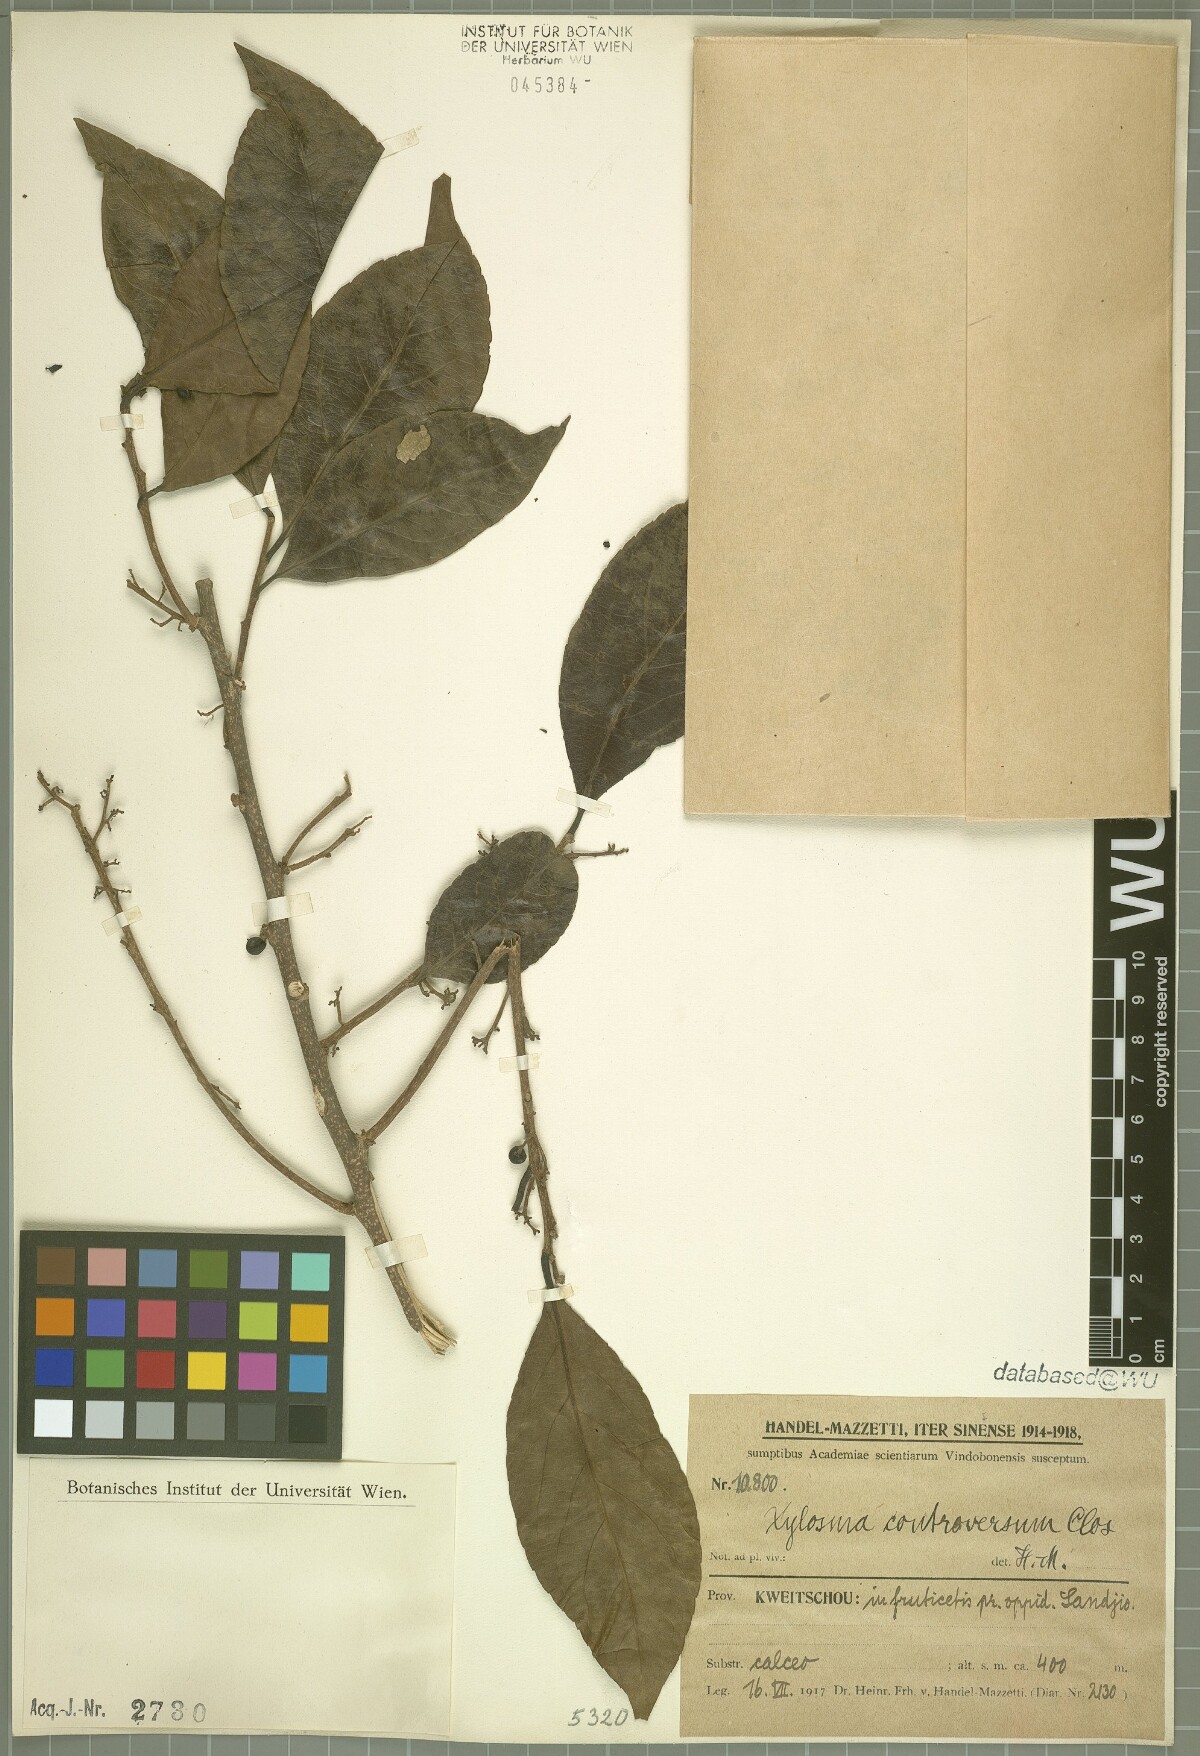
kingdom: Plantae
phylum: Tracheophyta
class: Magnoliopsida
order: Malpighiales
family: Salicaceae
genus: Xylosma
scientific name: Xylosma controversa
